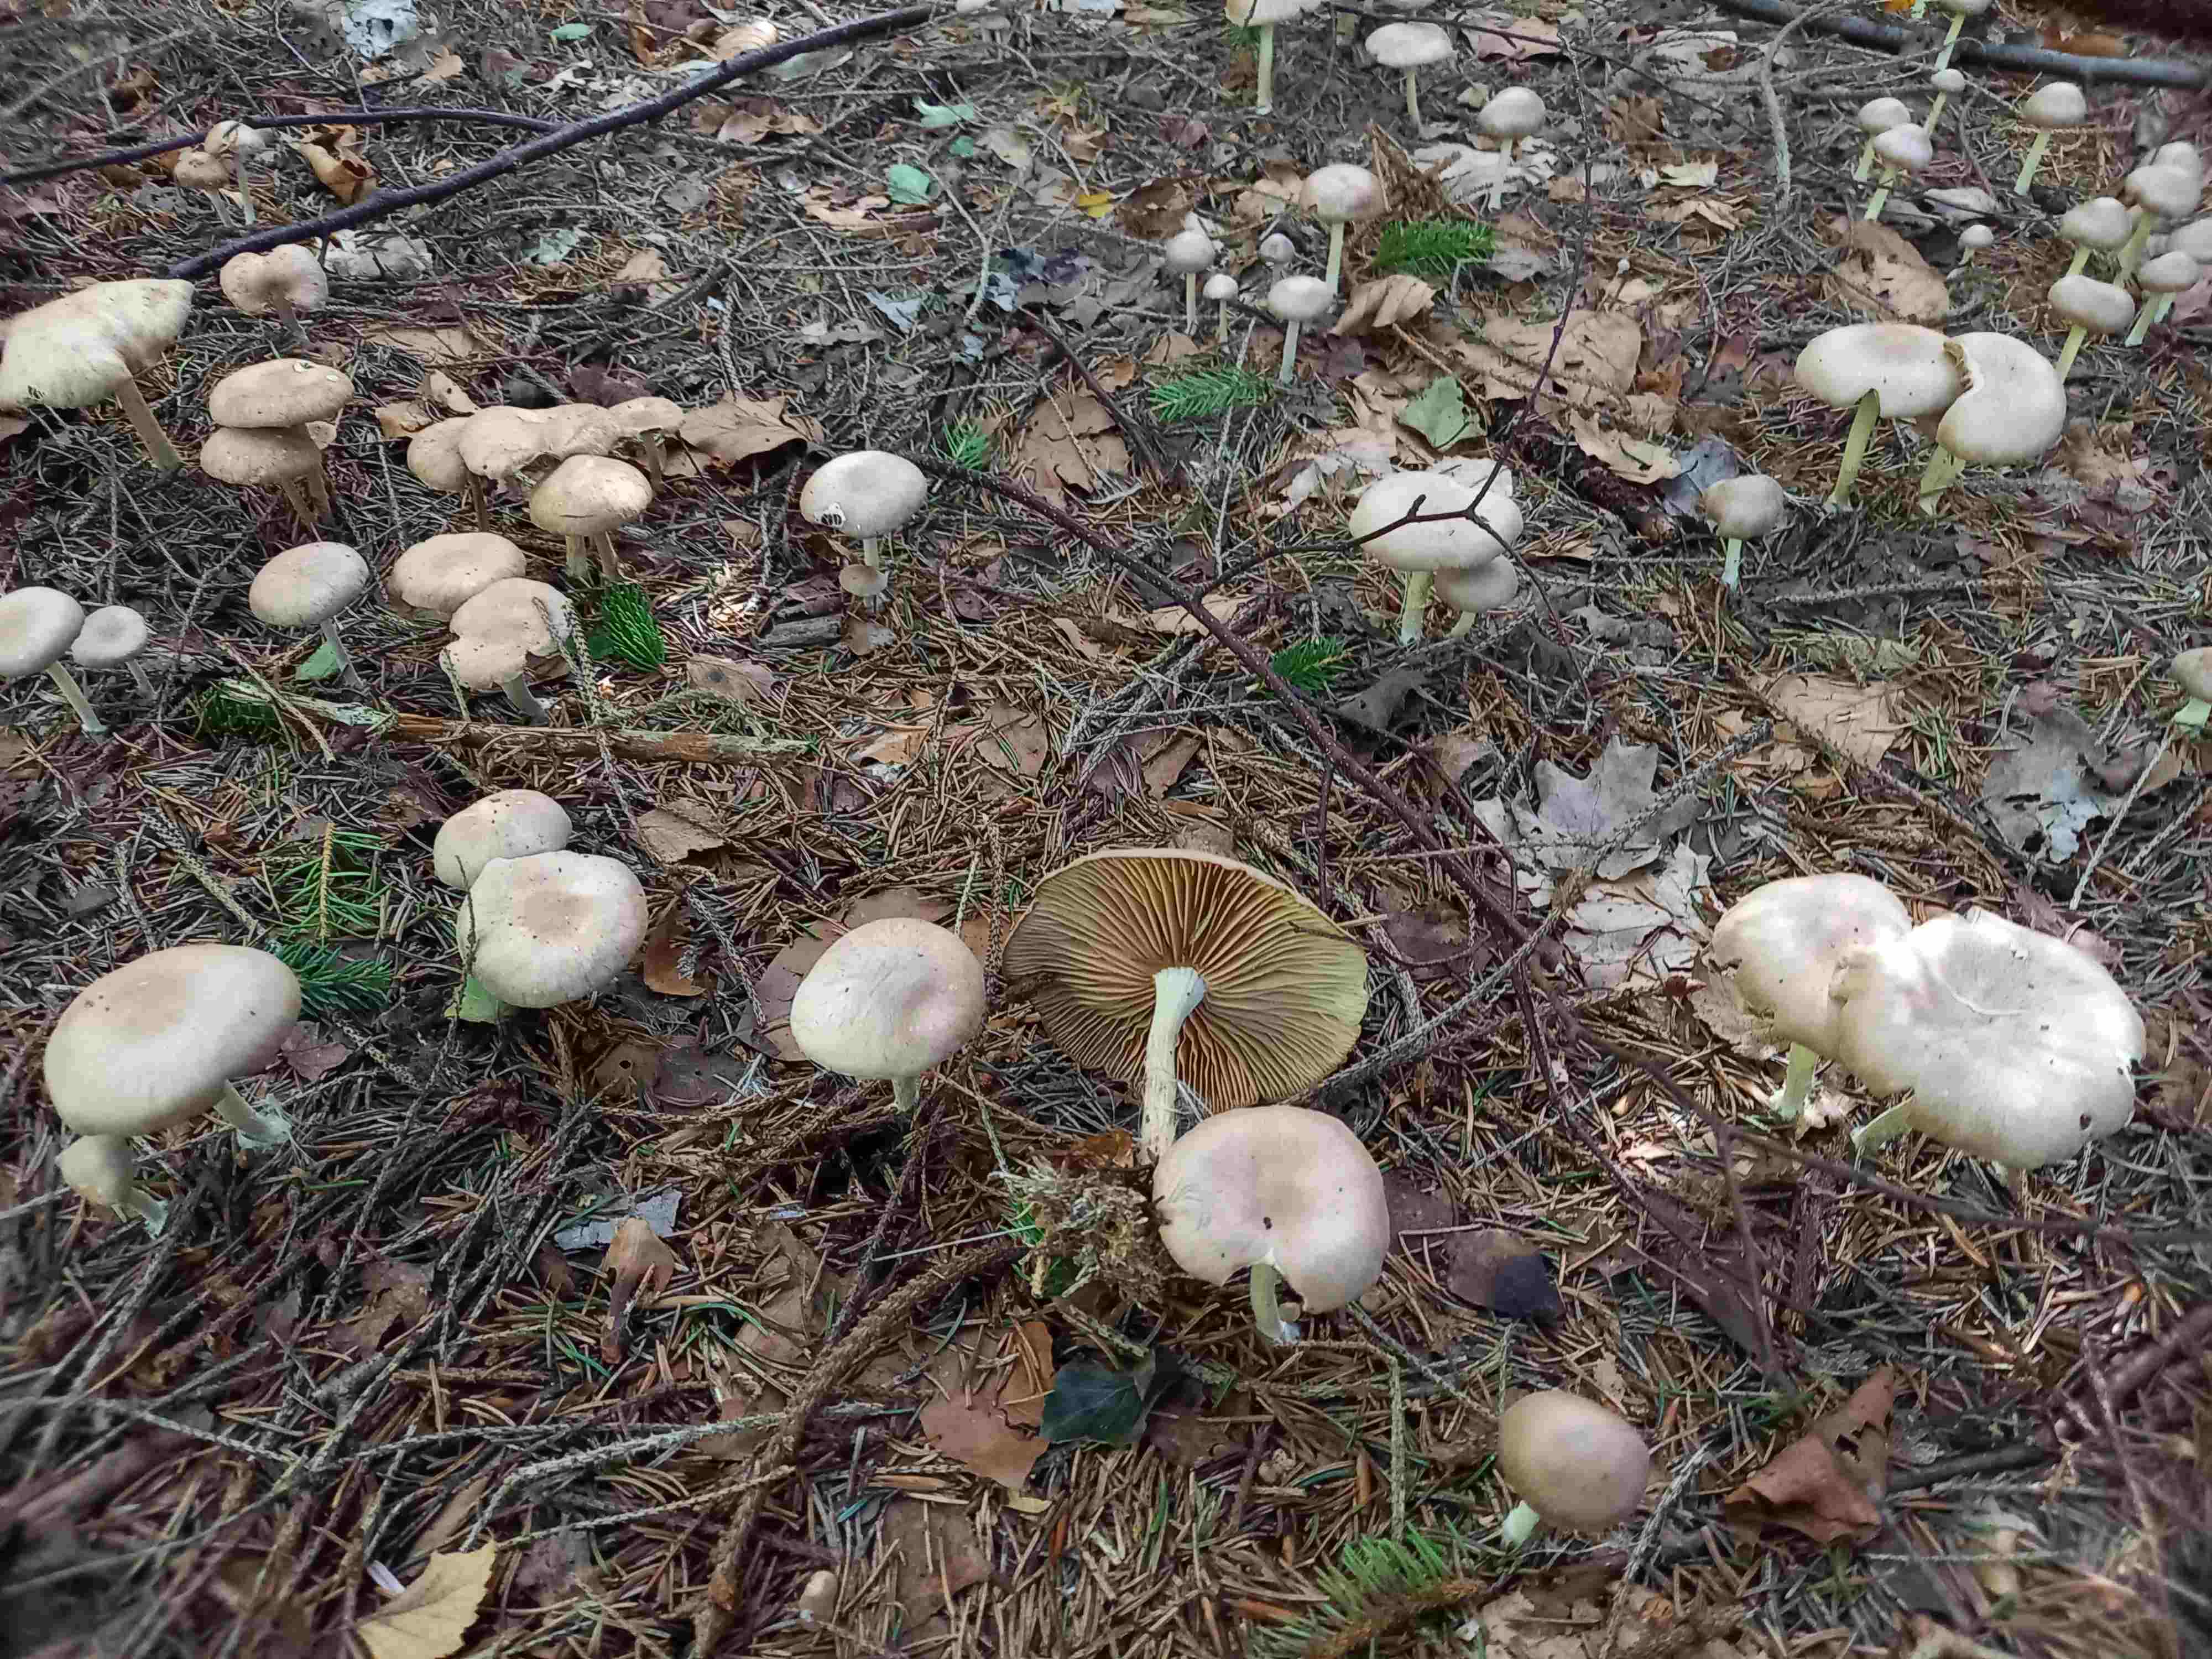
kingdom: Fungi
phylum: Basidiomycota
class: Agaricomycetes
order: Agaricales
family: Omphalotaceae
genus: Collybiopsis
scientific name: Collybiopsis peronata
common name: bestøvlet fladhat
